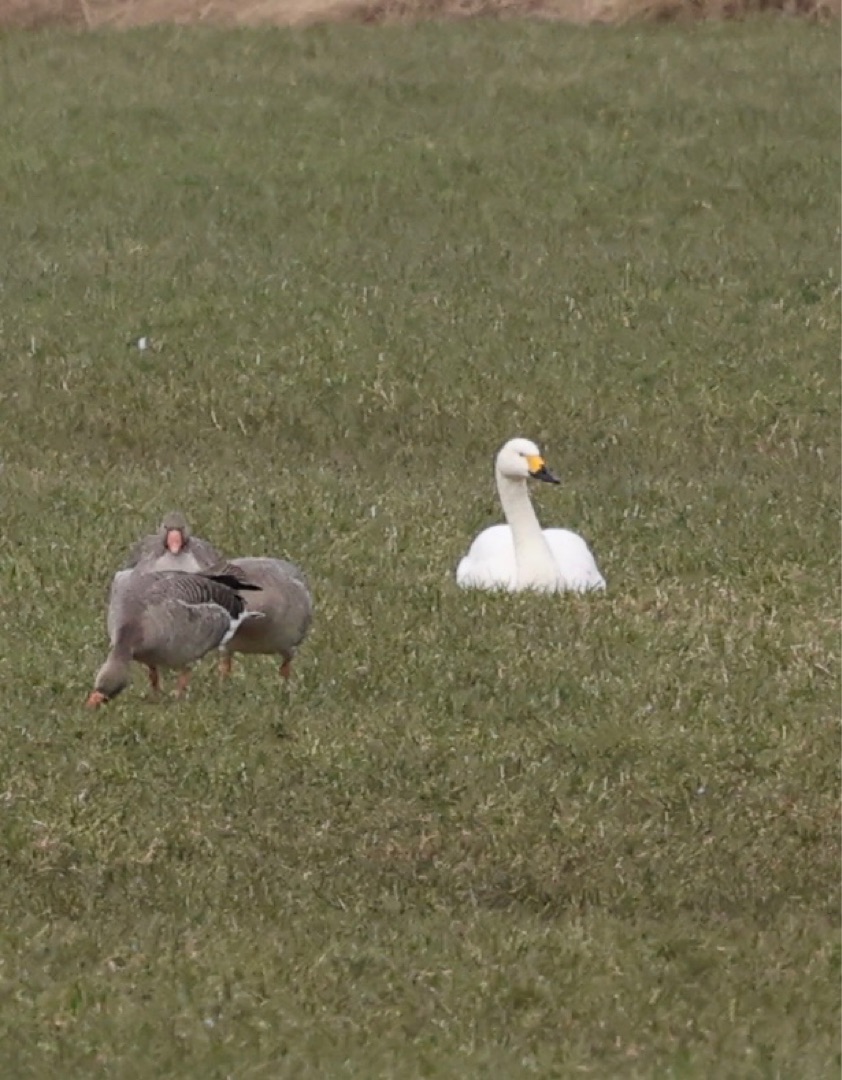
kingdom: Animalia
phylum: Chordata
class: Aves
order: Anseriformes
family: Anatidae
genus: Cygnus
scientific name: Cygnus columbianus
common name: Pibesvane
